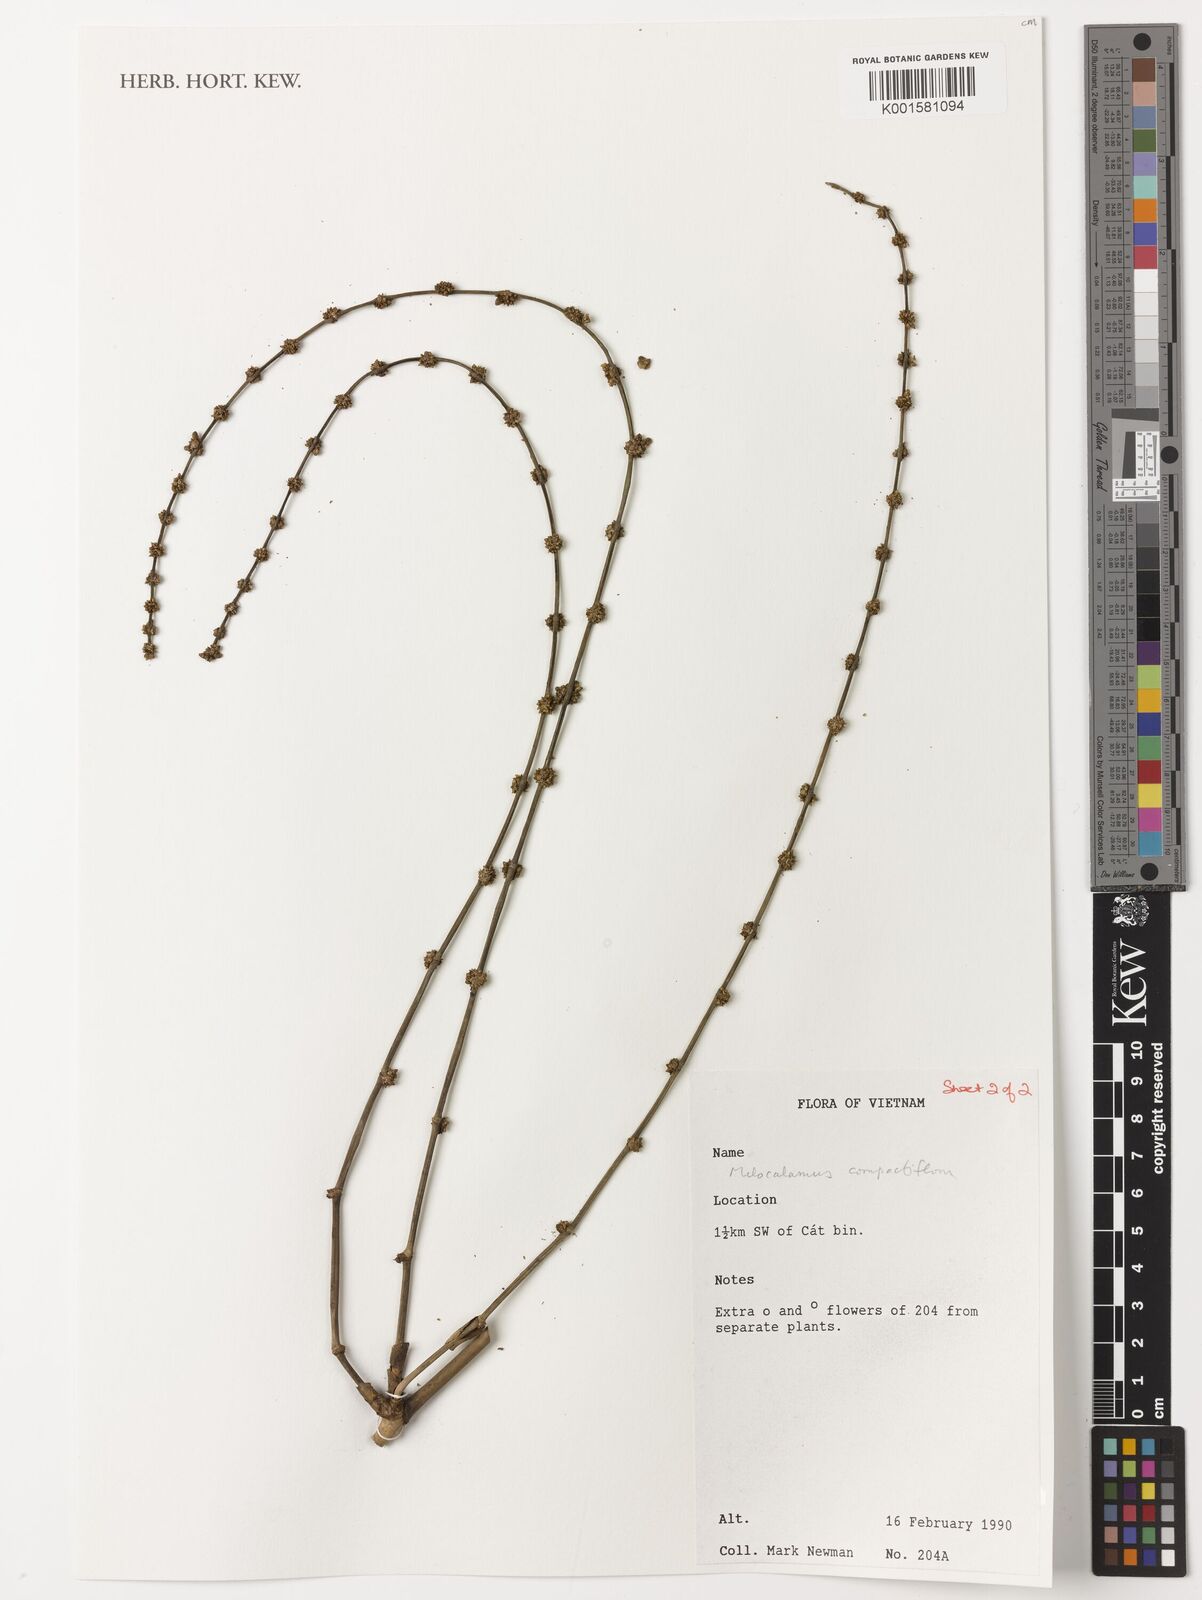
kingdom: Plantae
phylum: Tracheophyta
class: Liliopsida
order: Poales
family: Poaceae
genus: Melocalamus
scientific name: Melocalamus compactiflorus
